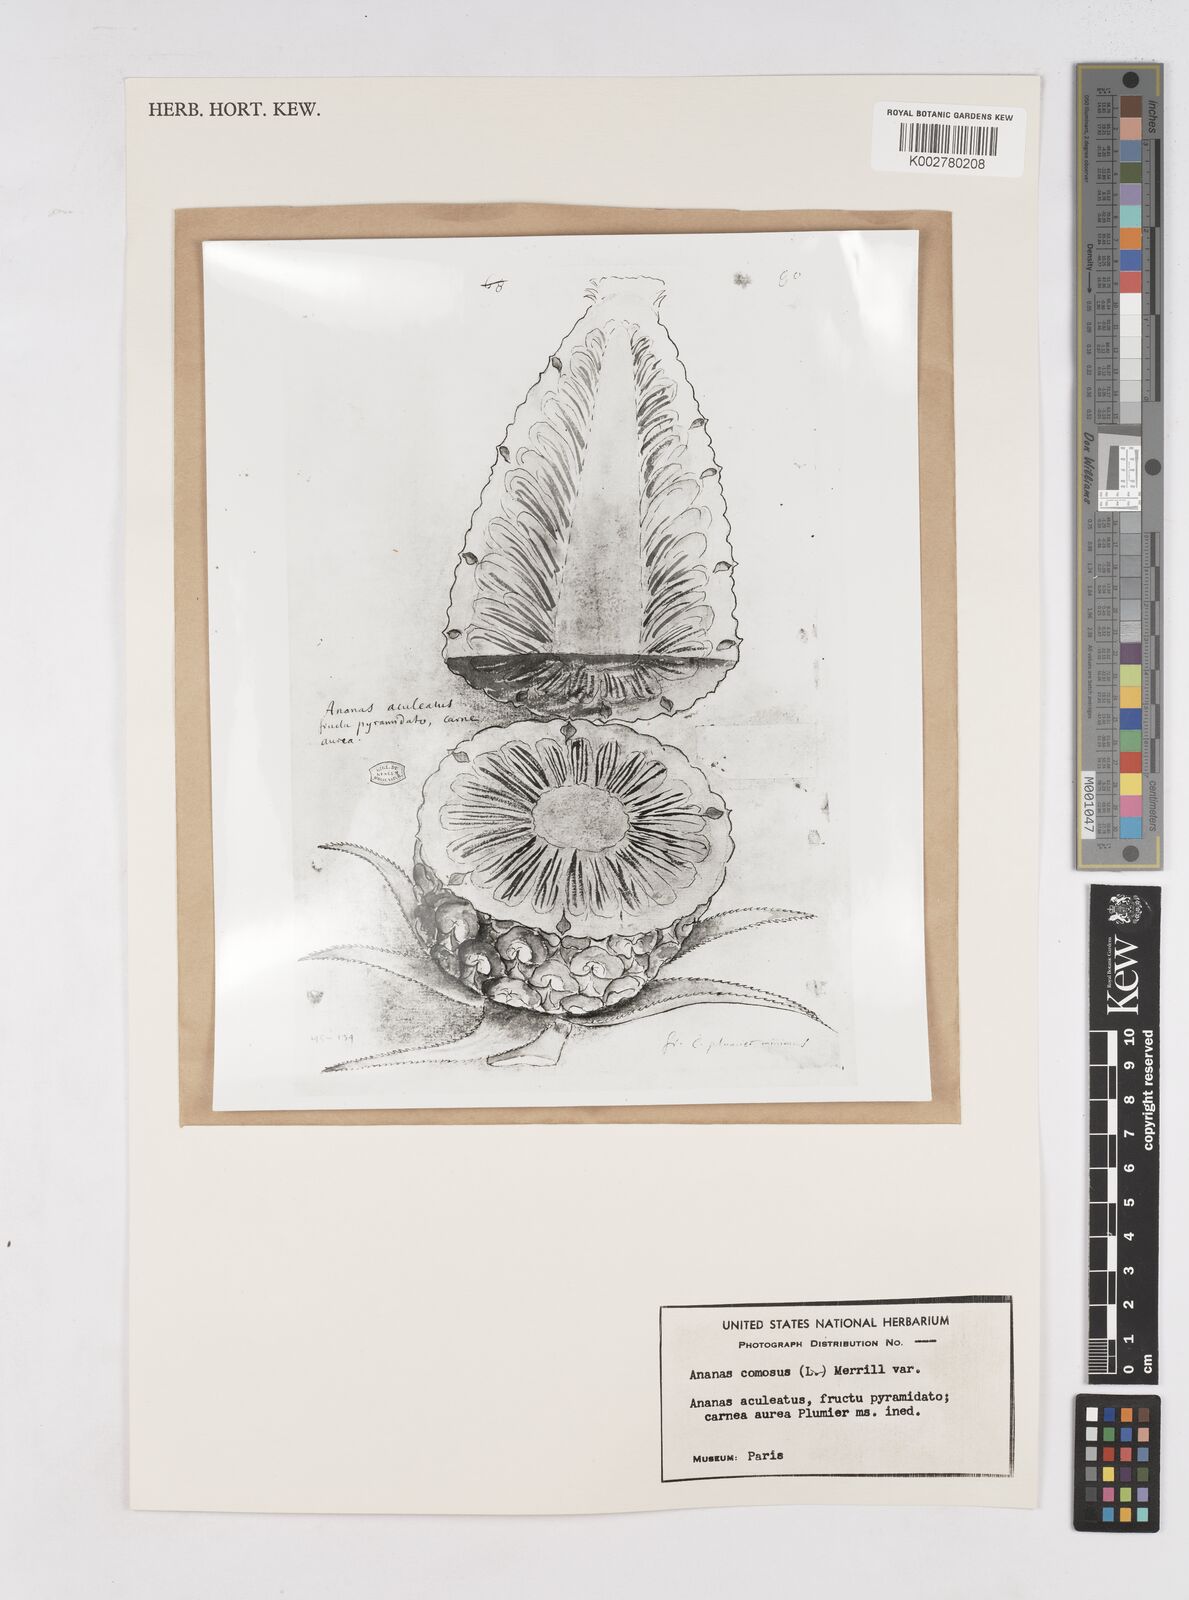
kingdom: Plantae
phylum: Tracheophyta
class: Liliopsida
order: Poales
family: Bromeliaceae
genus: Ananas
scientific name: Ananas
